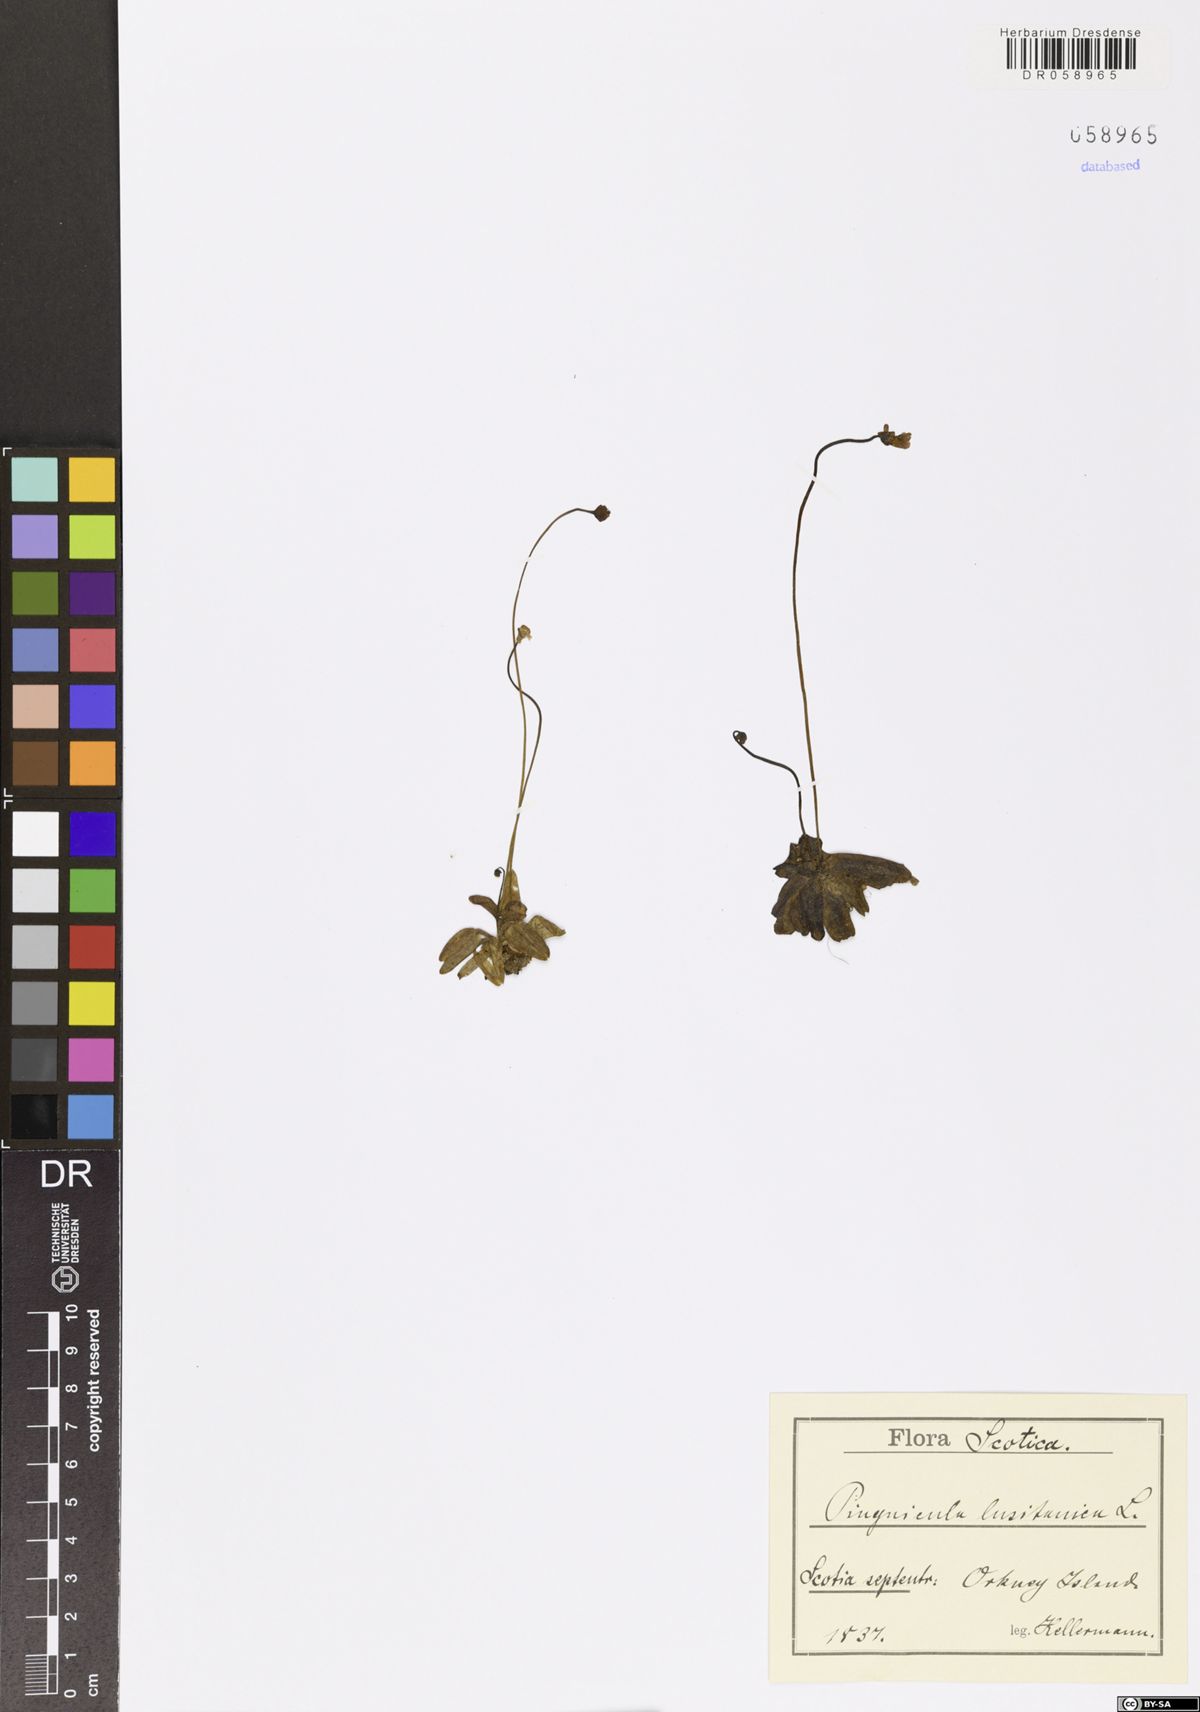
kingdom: Plantae
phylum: Tracheophyta
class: Magnoliopsida
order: Lamiales
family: Lentibulariaceae
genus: Pinguicula
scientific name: Pinguicula lusitanica
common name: Pale butterwort
